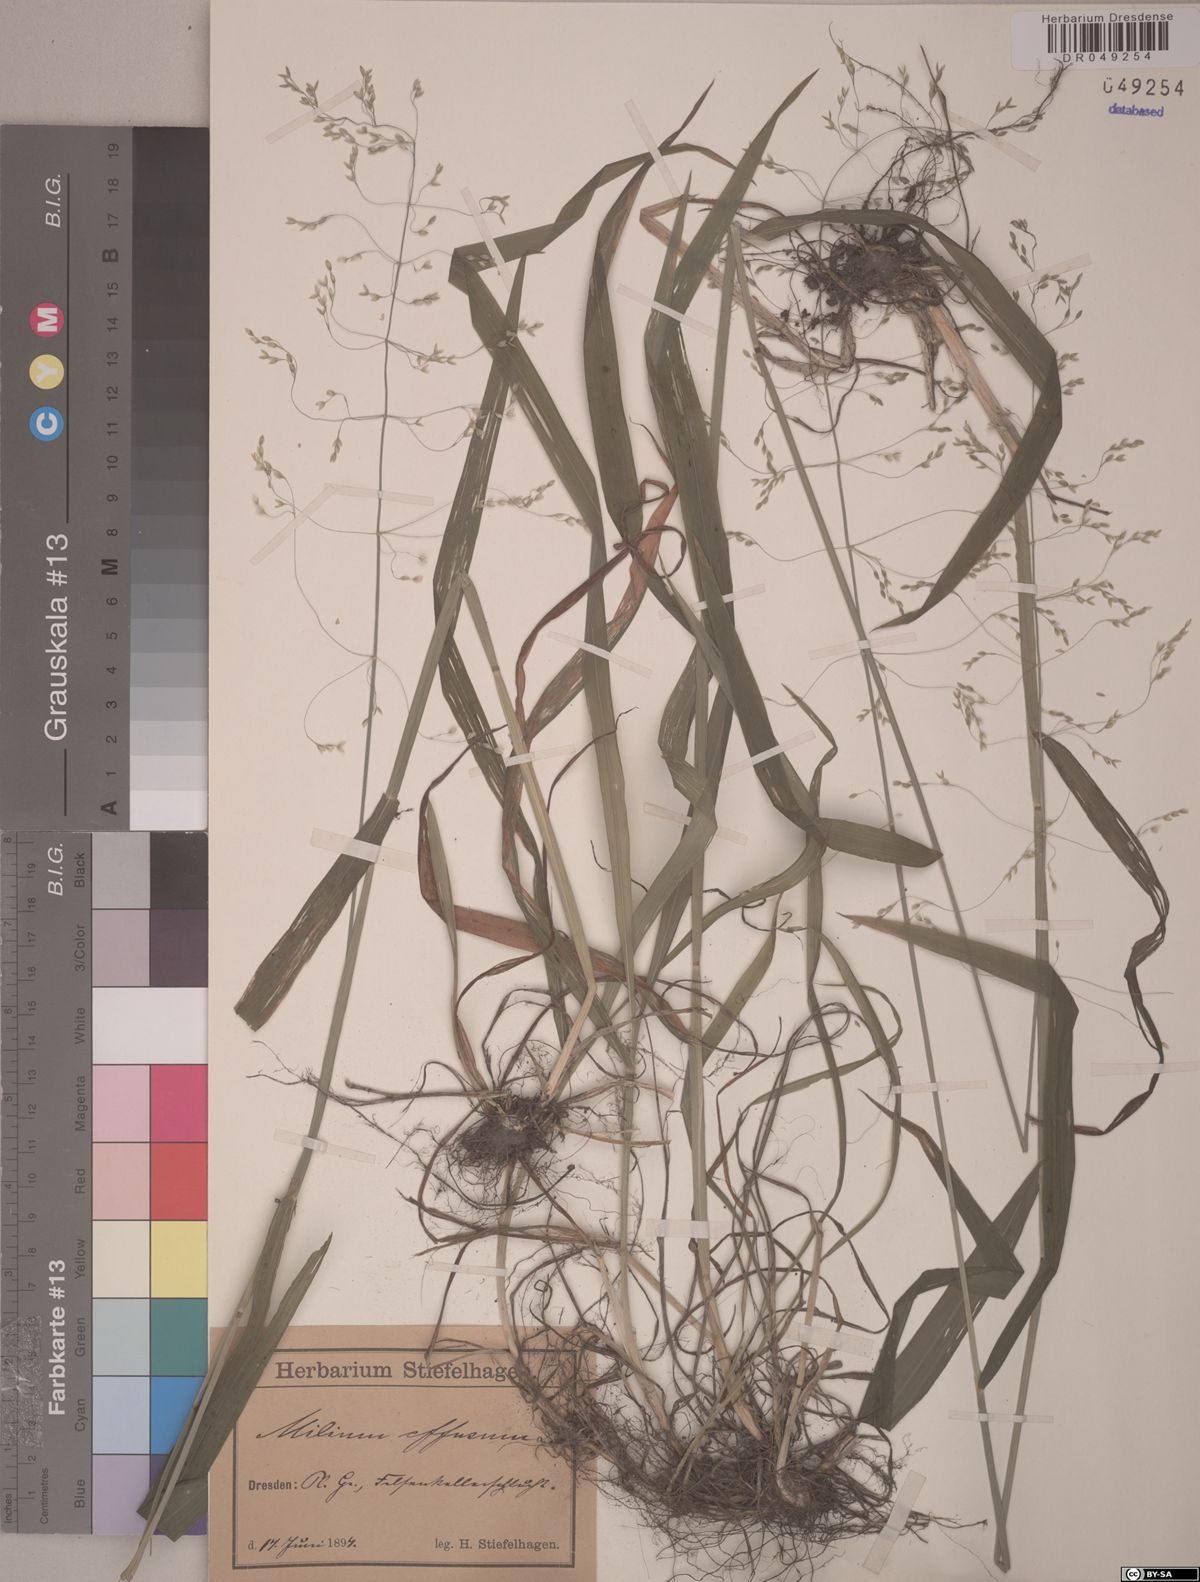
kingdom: Plantae
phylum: Tracheophyta
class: Liliopsida
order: Poales
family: Poaceae
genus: Milium
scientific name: Milium effusum
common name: Wood millet
